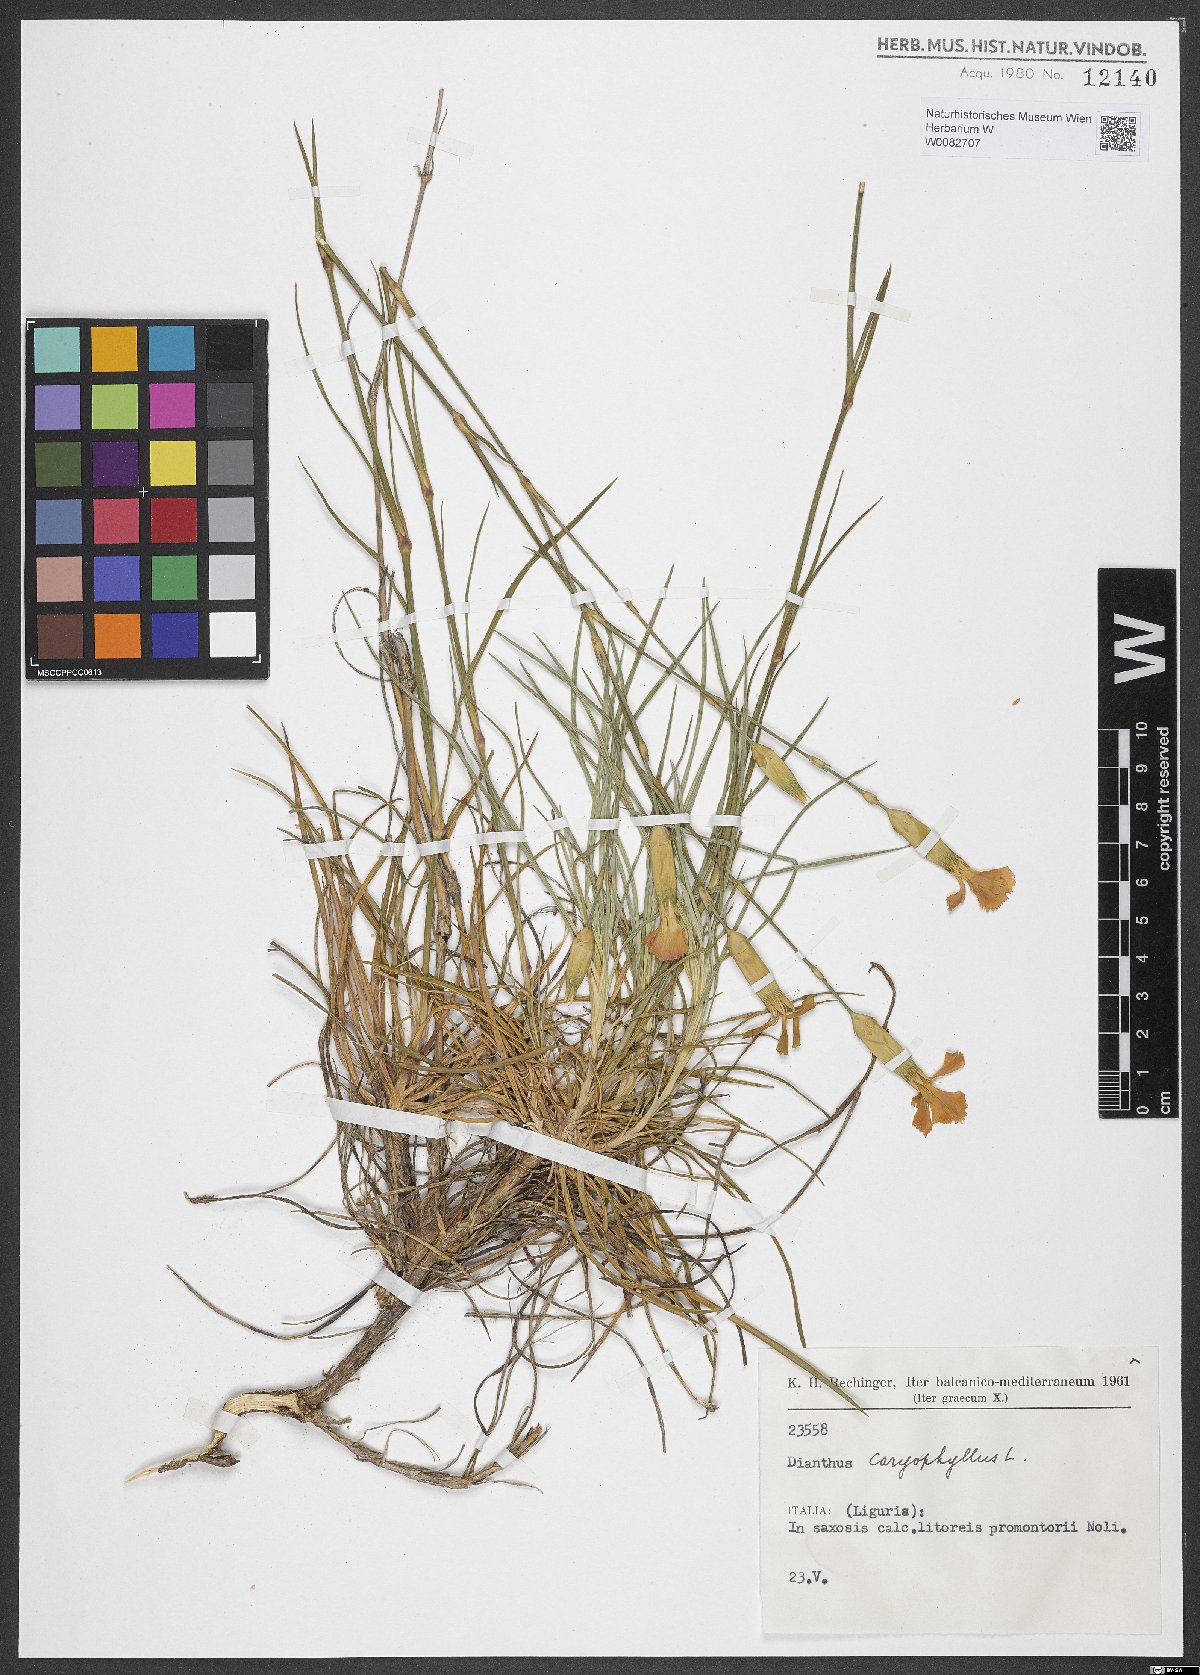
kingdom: Plantae
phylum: Tracheophyta
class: Magnoliopsida
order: Caryophyllales
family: Caryophyllaceae
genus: Dianthus
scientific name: Dianthus caryophyllus
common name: Clove pink
